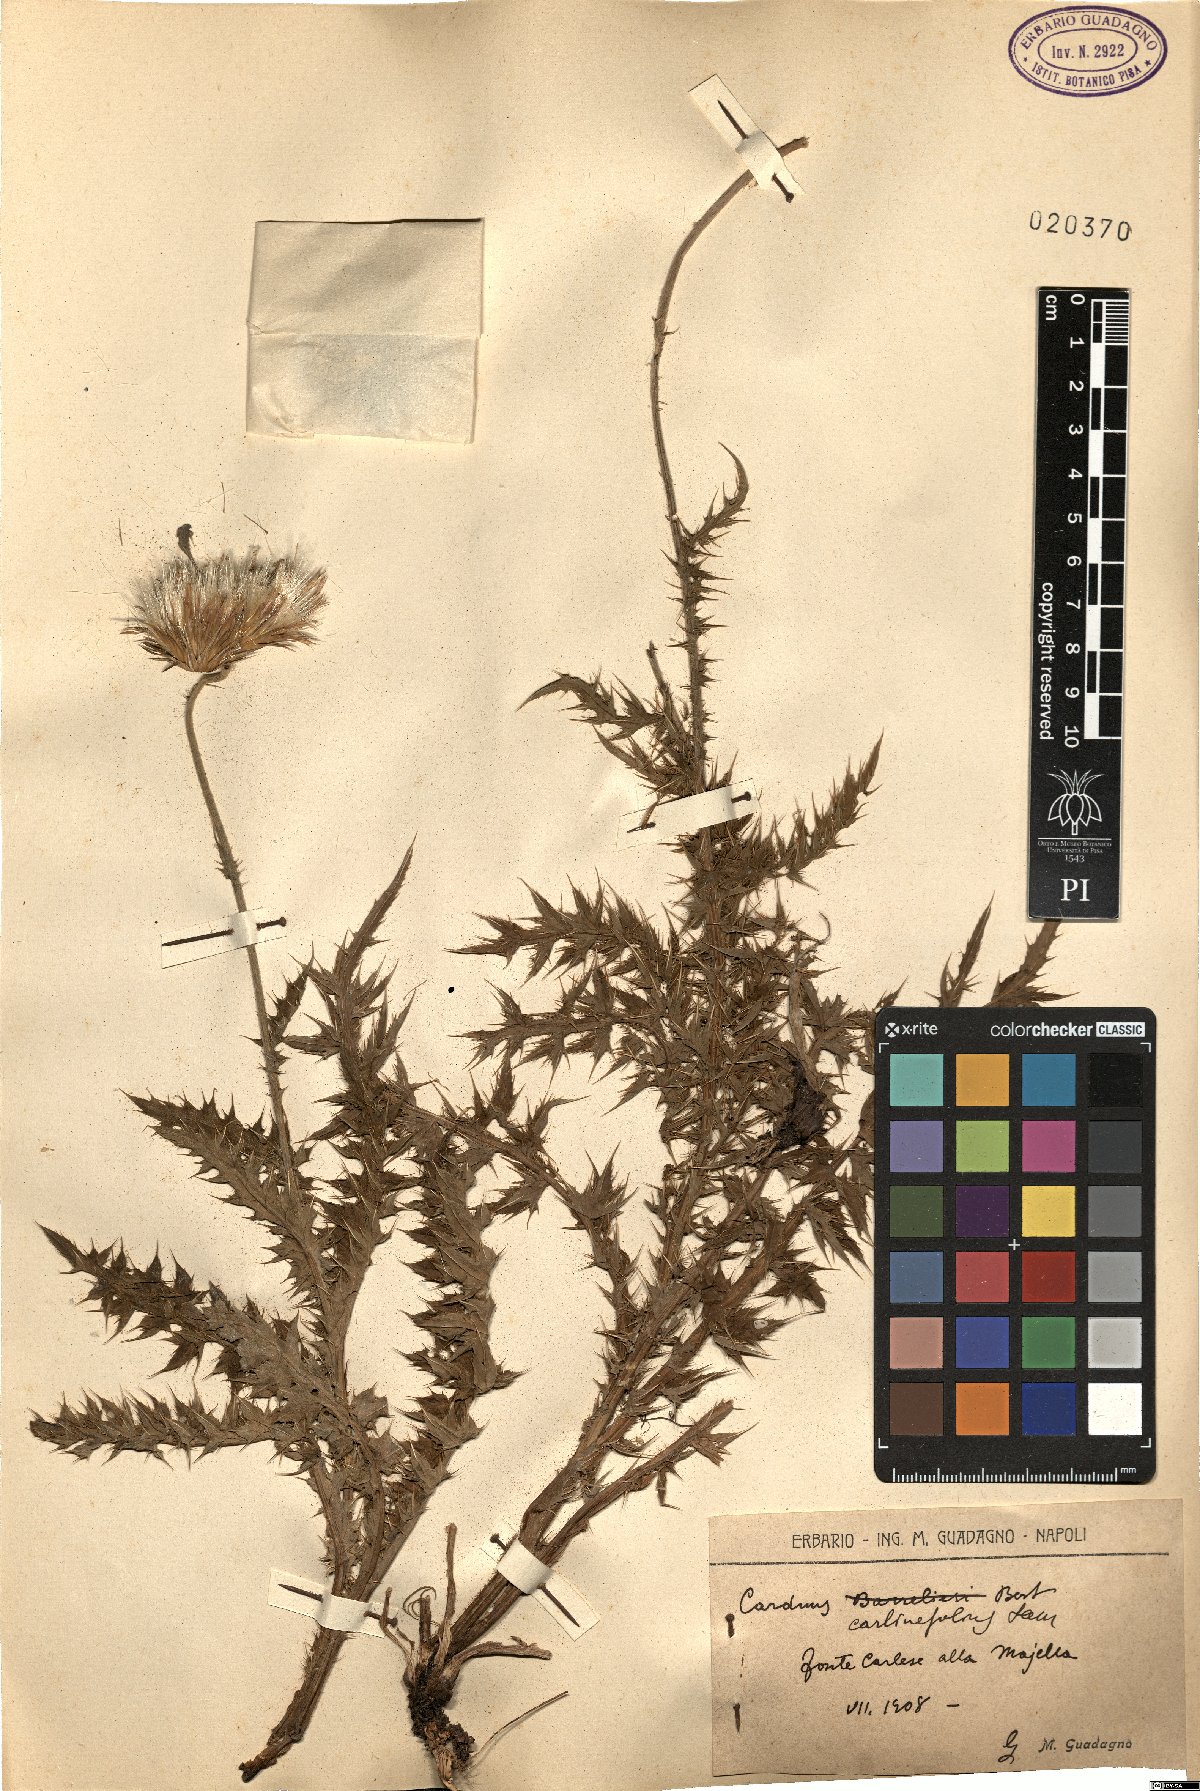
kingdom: Plantae
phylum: Tracheophyta
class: Magnoliopsida
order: Asterales
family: Asteraceae
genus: Carduus
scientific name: Carduus carlinifolius
